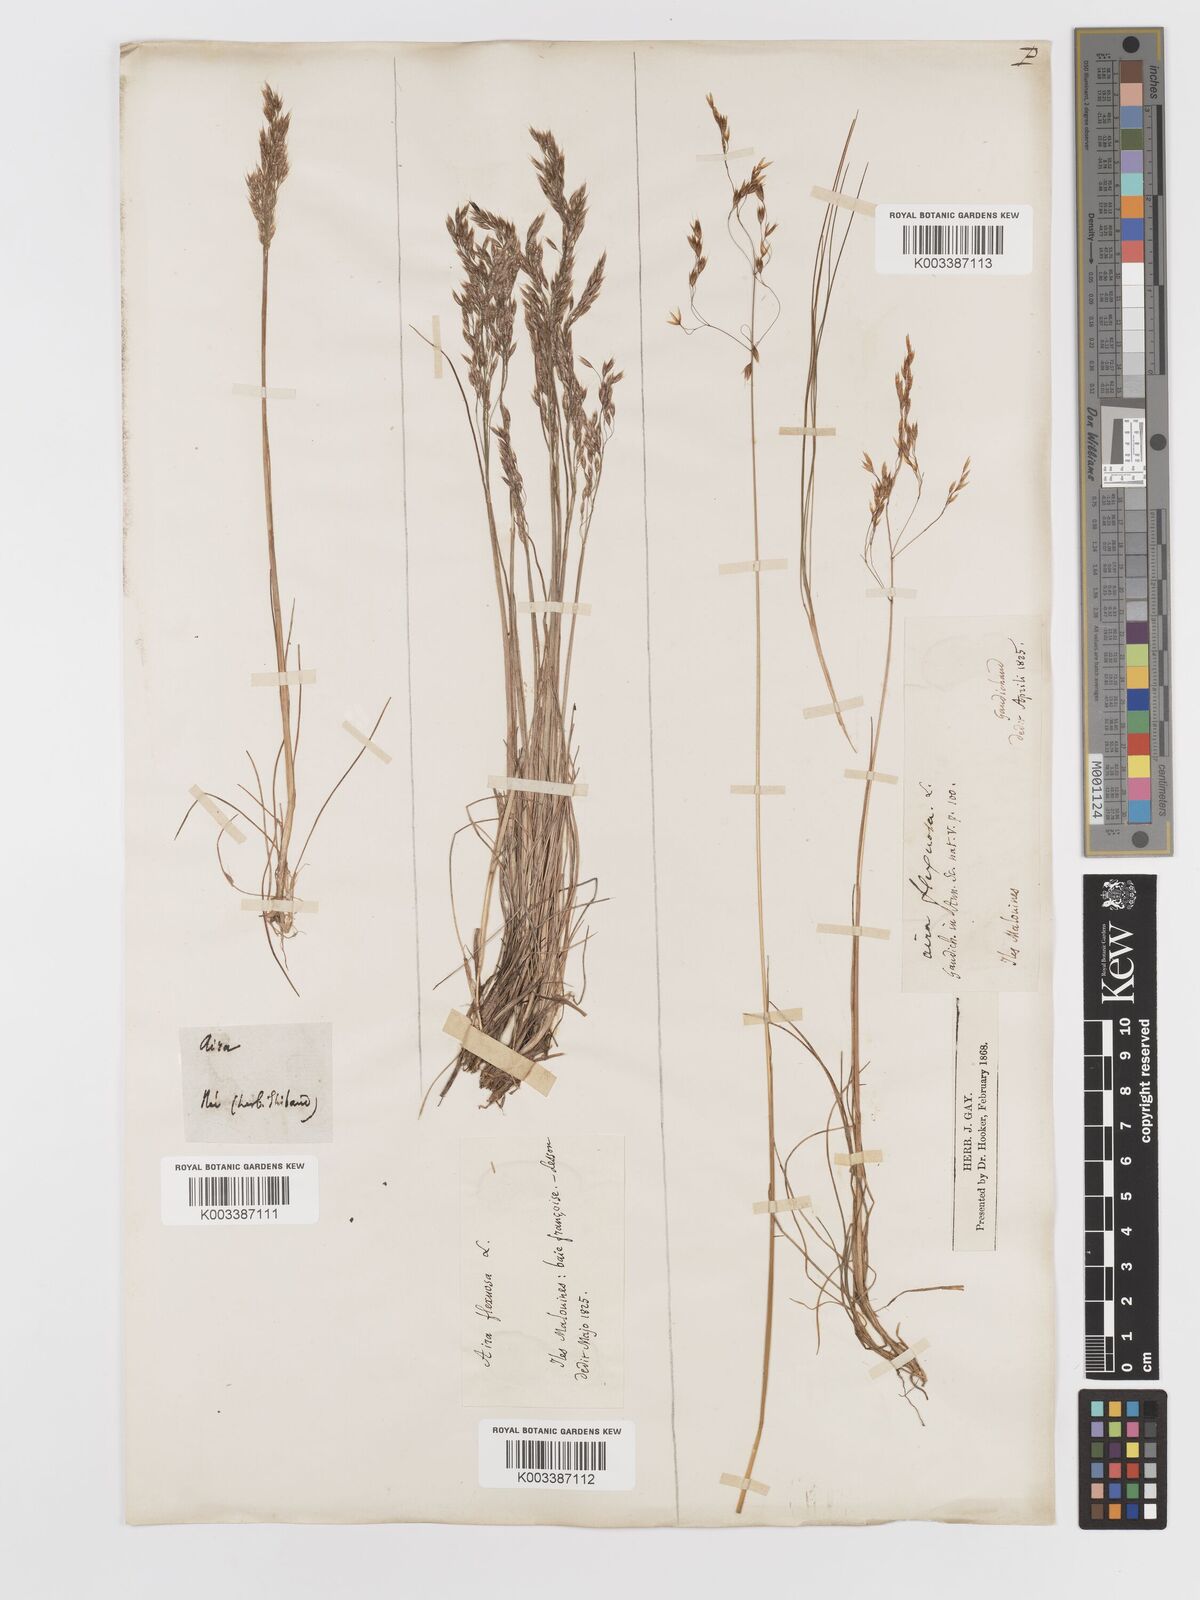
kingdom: Plantae
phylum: Tracheophyta
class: Liliopsida
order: Poales
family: Poaceae
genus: Avenella
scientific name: Avenella flexuosa
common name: Wavy hairgrass
